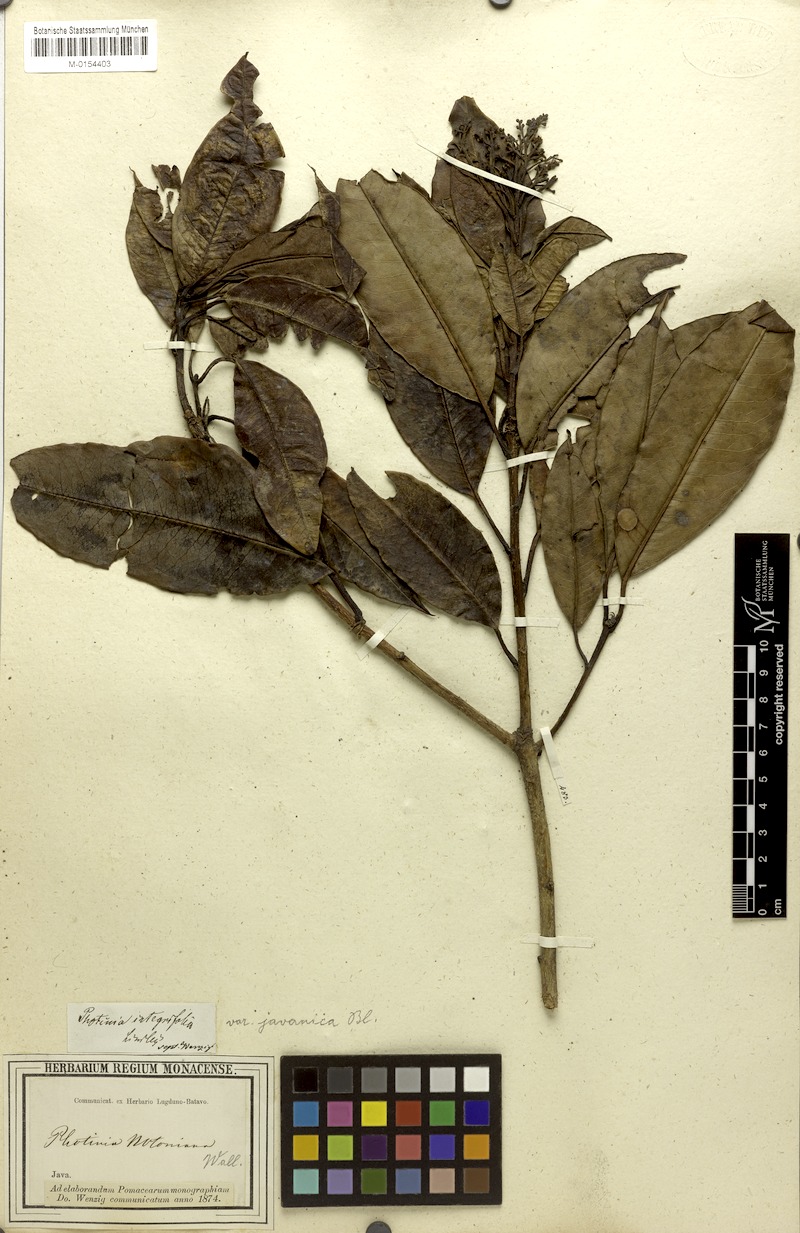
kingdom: Plantae
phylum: Tracheophyta
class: Magnoliopsida
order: Rosales
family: Rosaceae
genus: Photinia
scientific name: Photinia integrifolia
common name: Himalayan chokeberry
